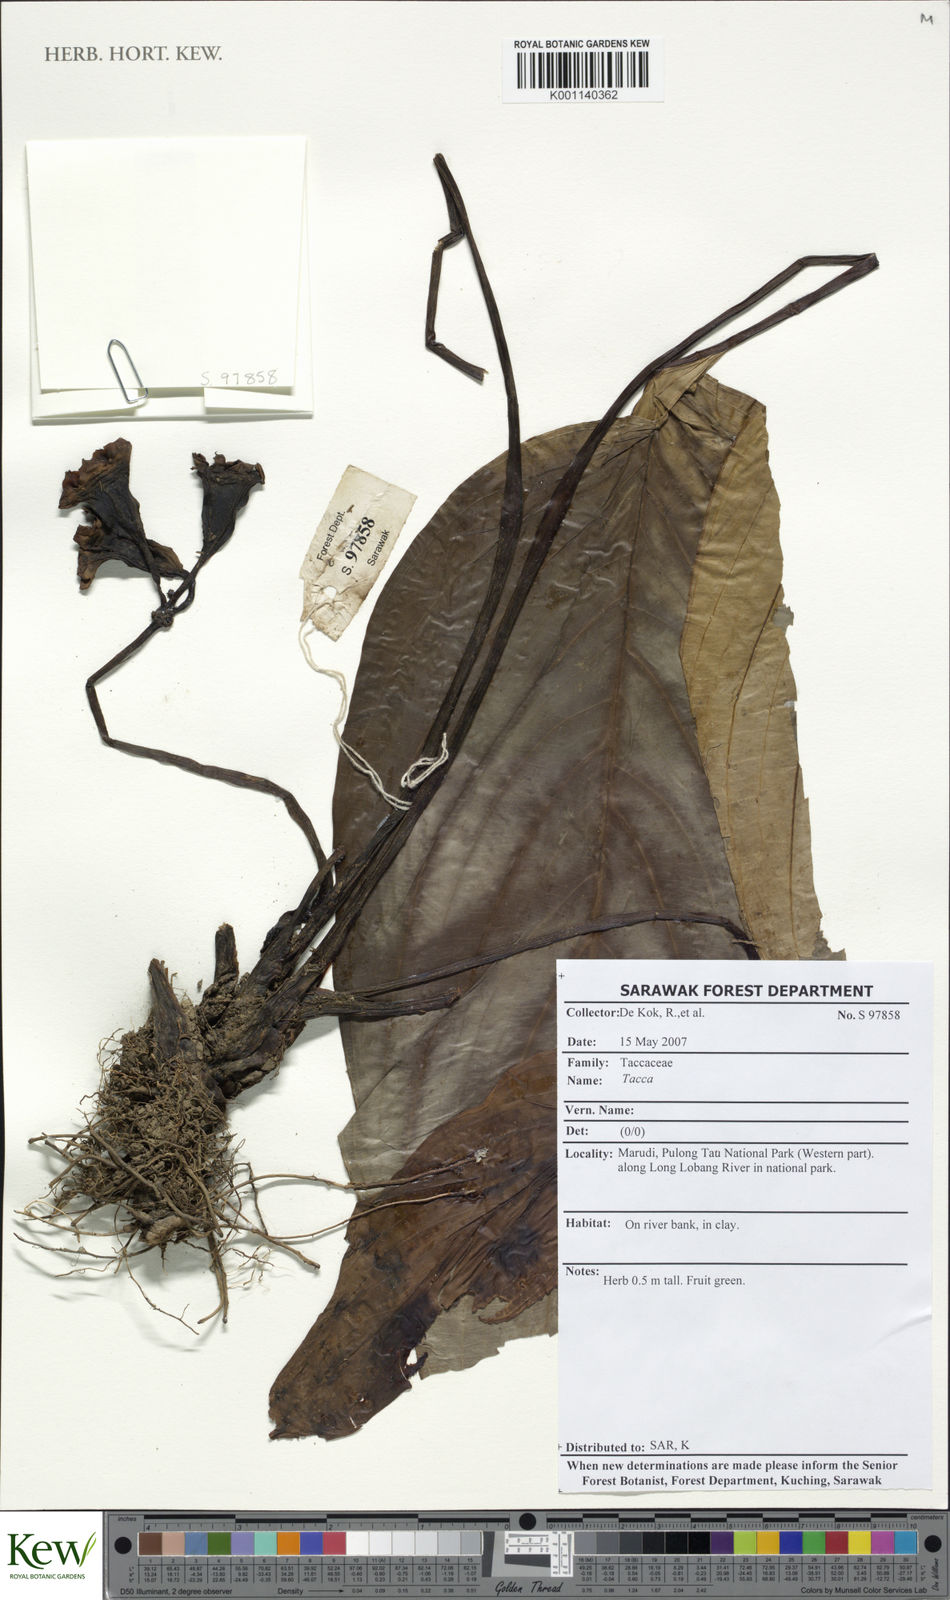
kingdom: Plantae
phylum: Tracheophyta
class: Liliopsida
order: Dioscoreales
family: Dioscoreaceae
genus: Tacca
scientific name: Tacca
